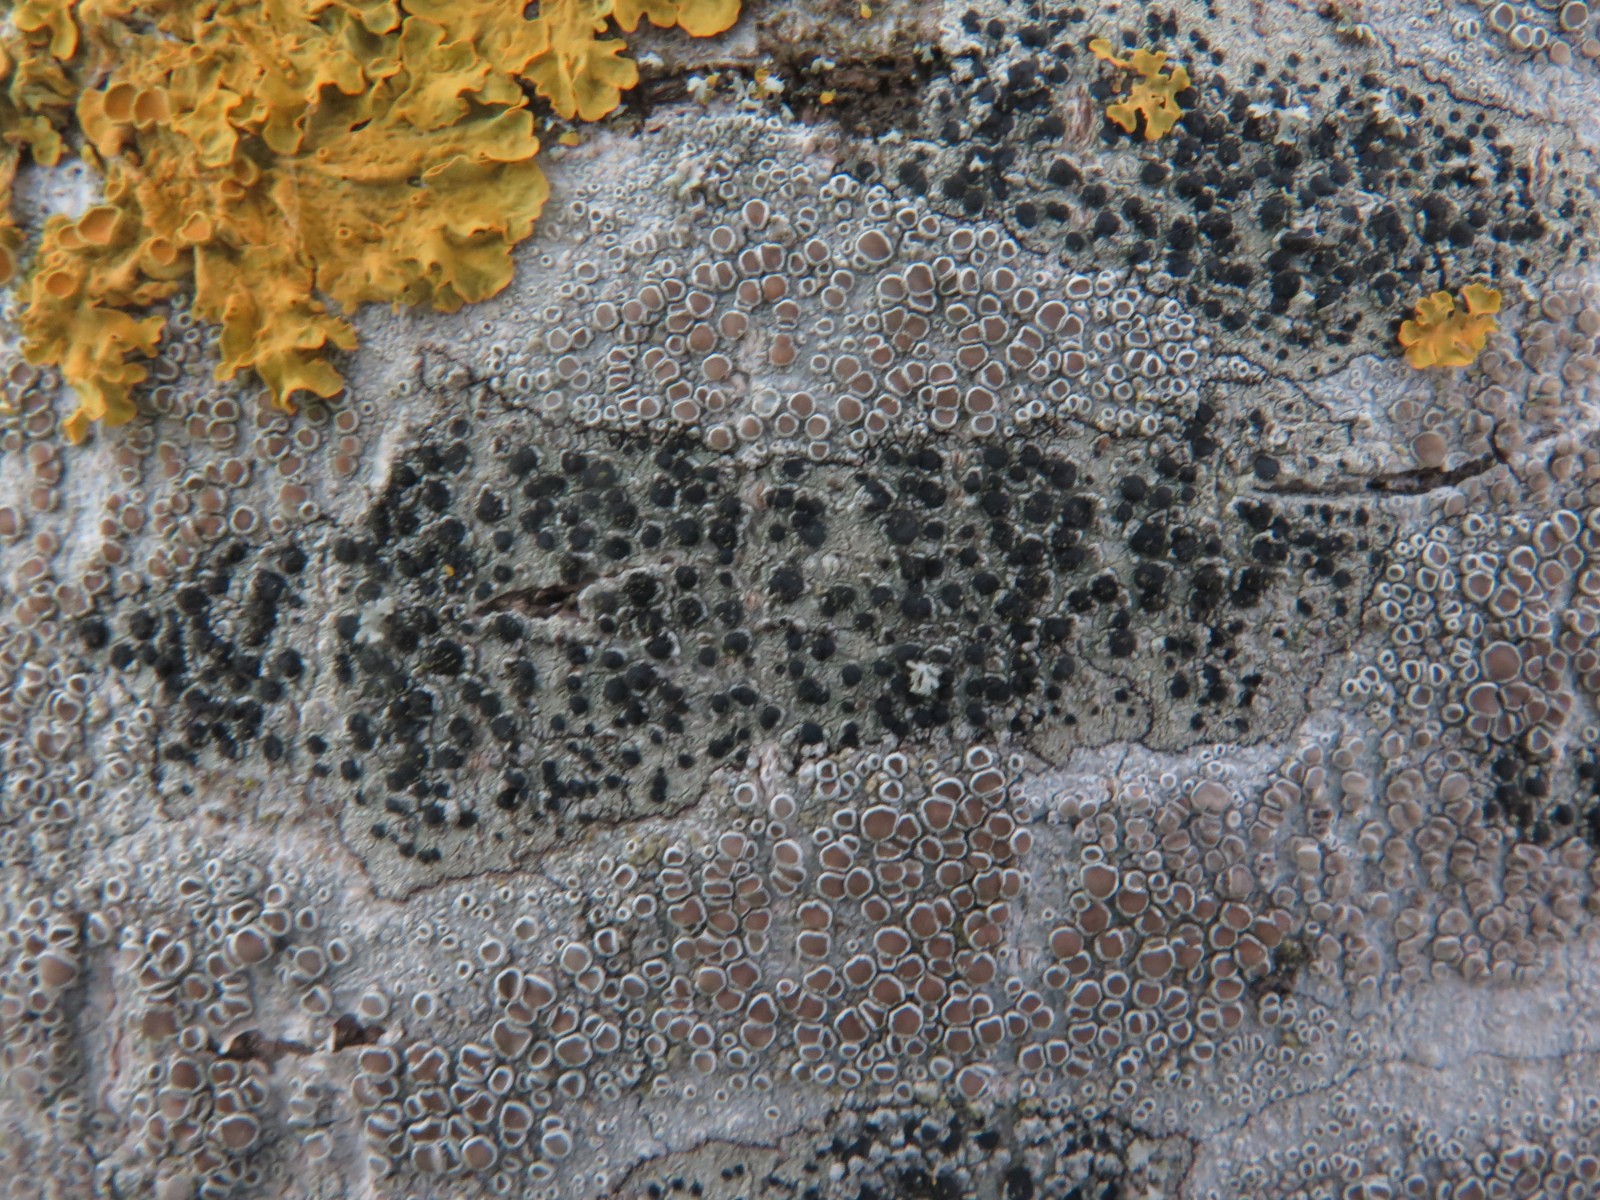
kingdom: Fungi
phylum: Ascomycota
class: Lecanoromycetes
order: Lecanorales
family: Lecanoraceae
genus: Lecidella
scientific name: Lecidella elaeochroma
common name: grågrøn skivelav
